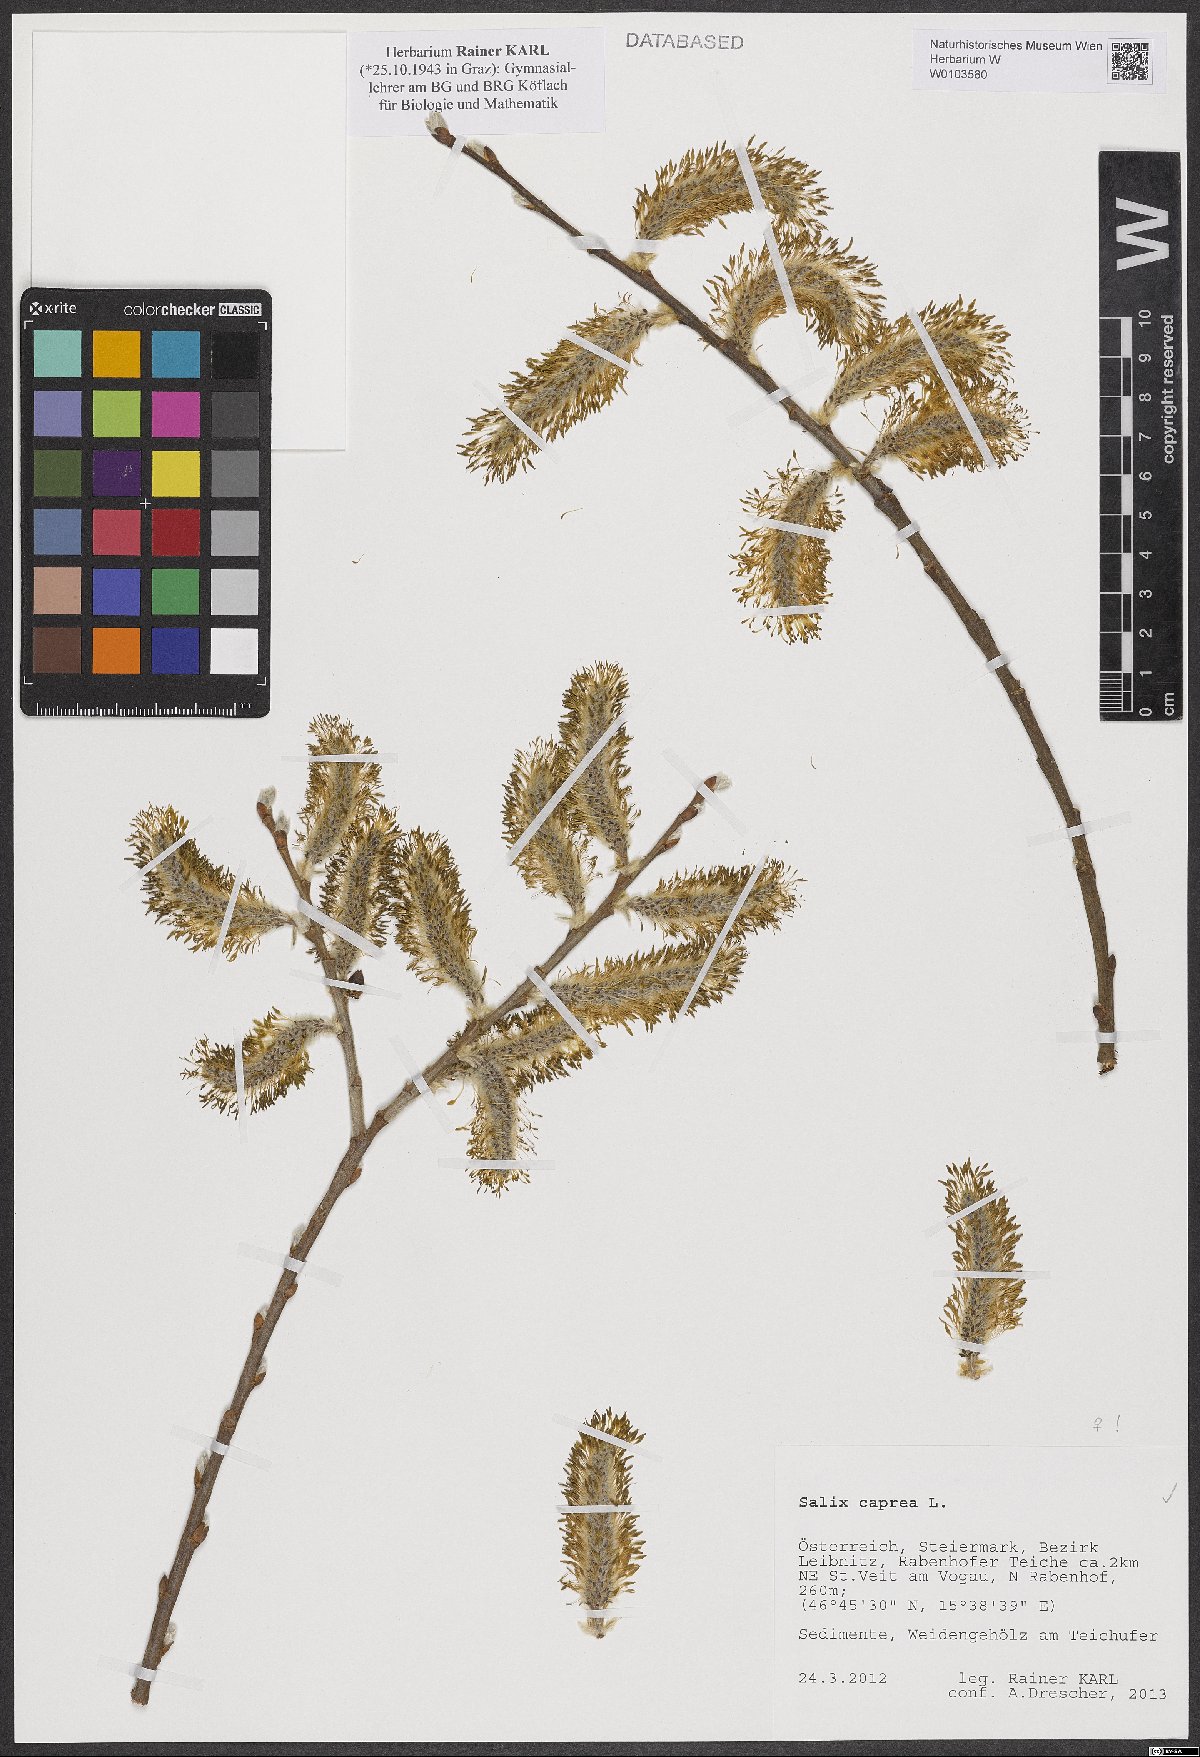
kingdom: Plantae
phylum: Tracheophyta
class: Magnoliopsida
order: Malpighiales
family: Salicaceae
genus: Salix
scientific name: Salix caprea
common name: Goat willow
